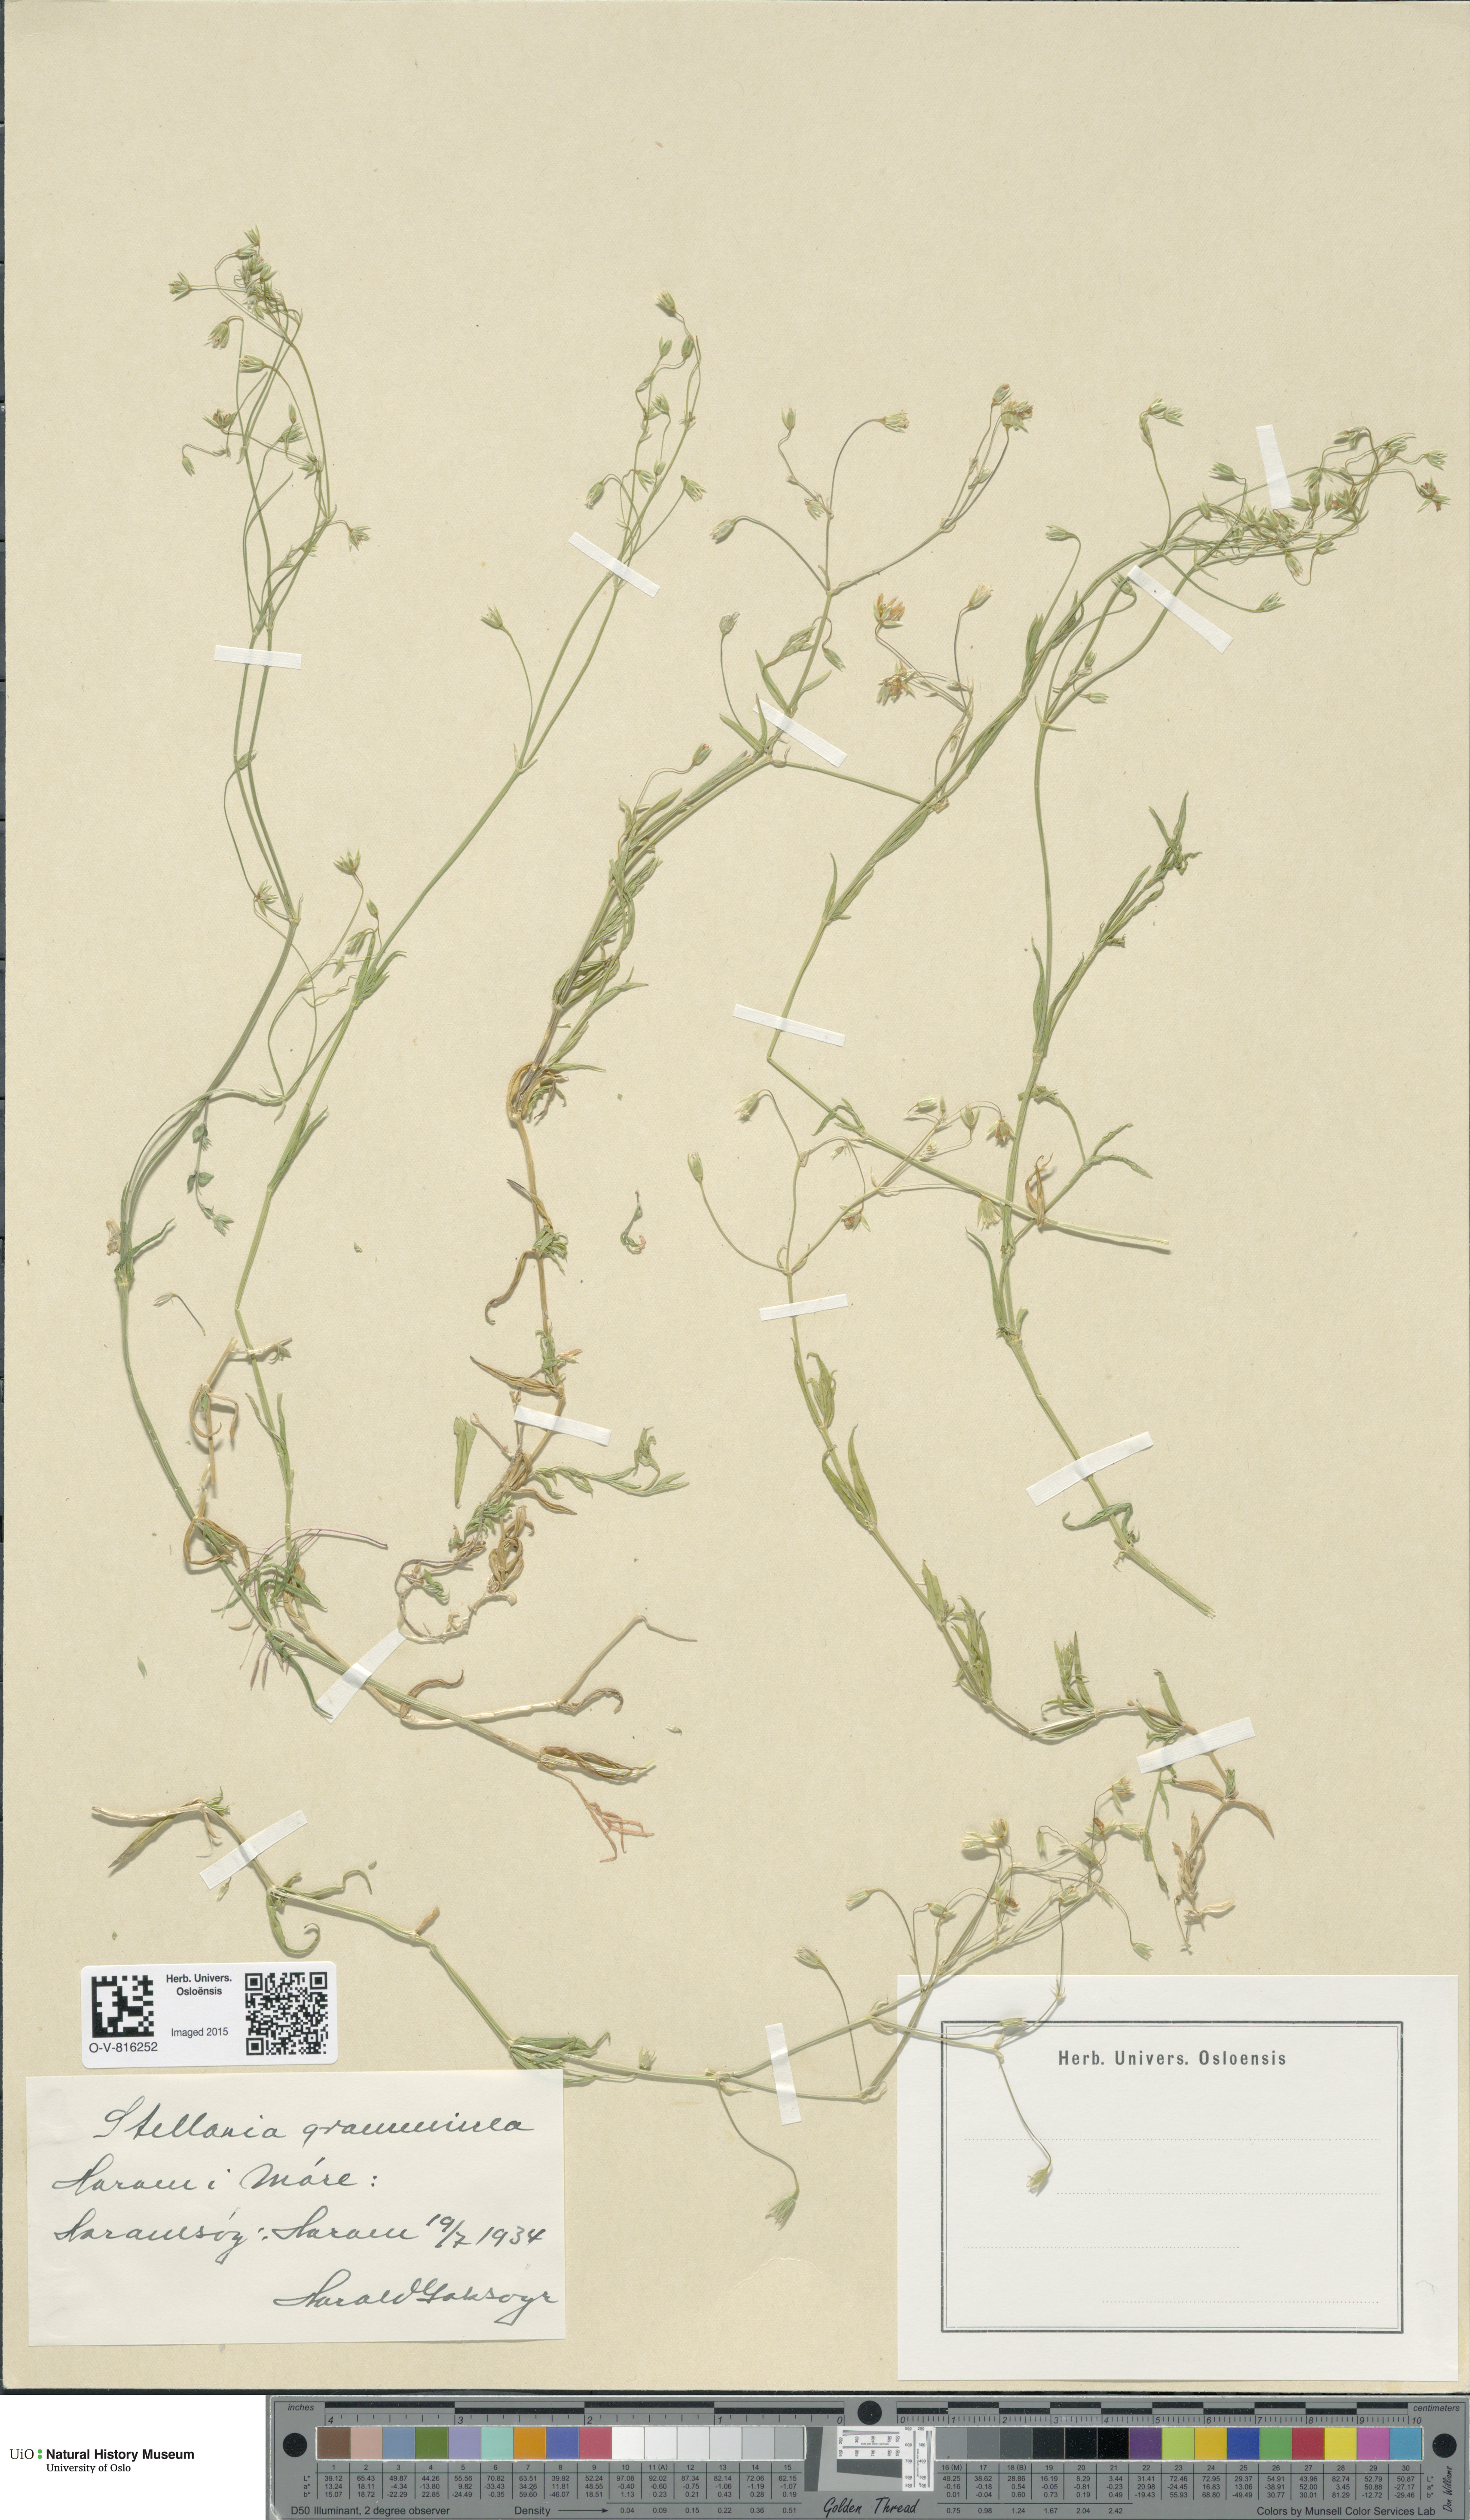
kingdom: Plantae
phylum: Tracheophyta
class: Magnoliopsida
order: Caryophyllales
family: Caryophyllaceae
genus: Stellaria
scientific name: Stellaria graminea
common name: Grass-like starwort
